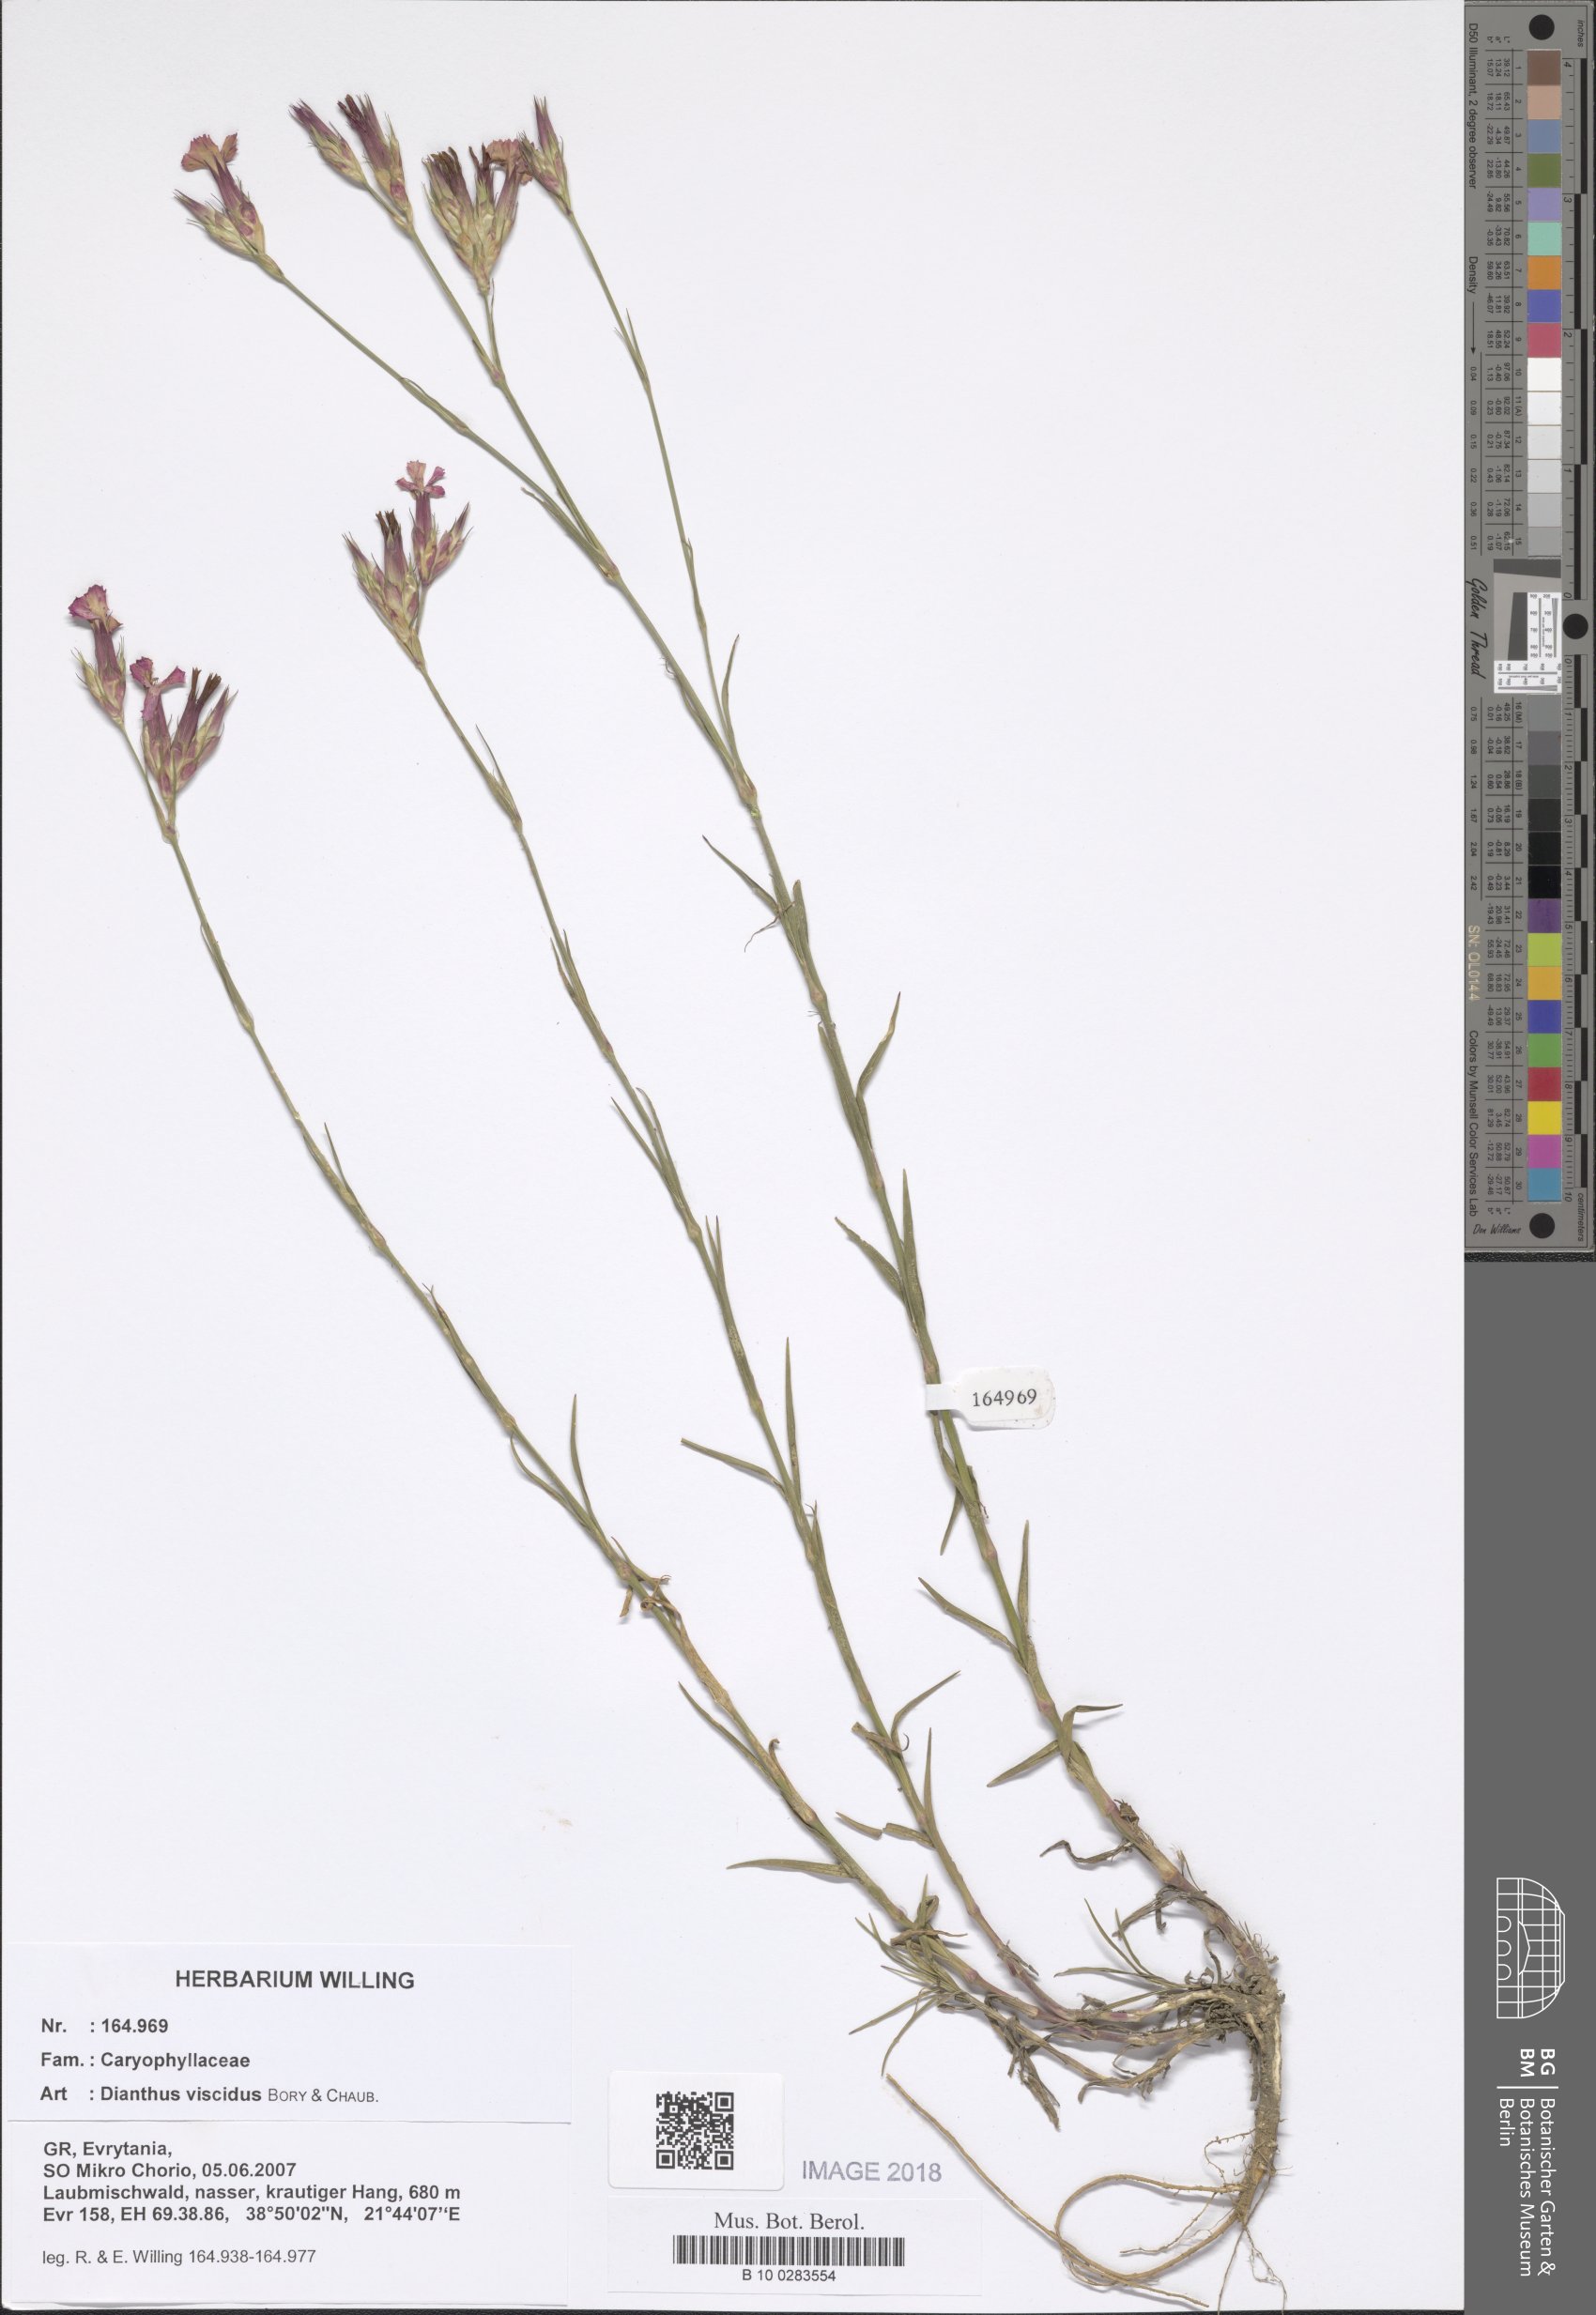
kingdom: Plantae
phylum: Tracheophyta
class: Magnoliopsida
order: Caryophyllales
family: Caryophyllaceae
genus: Dianthus
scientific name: Dianthus viscidus
